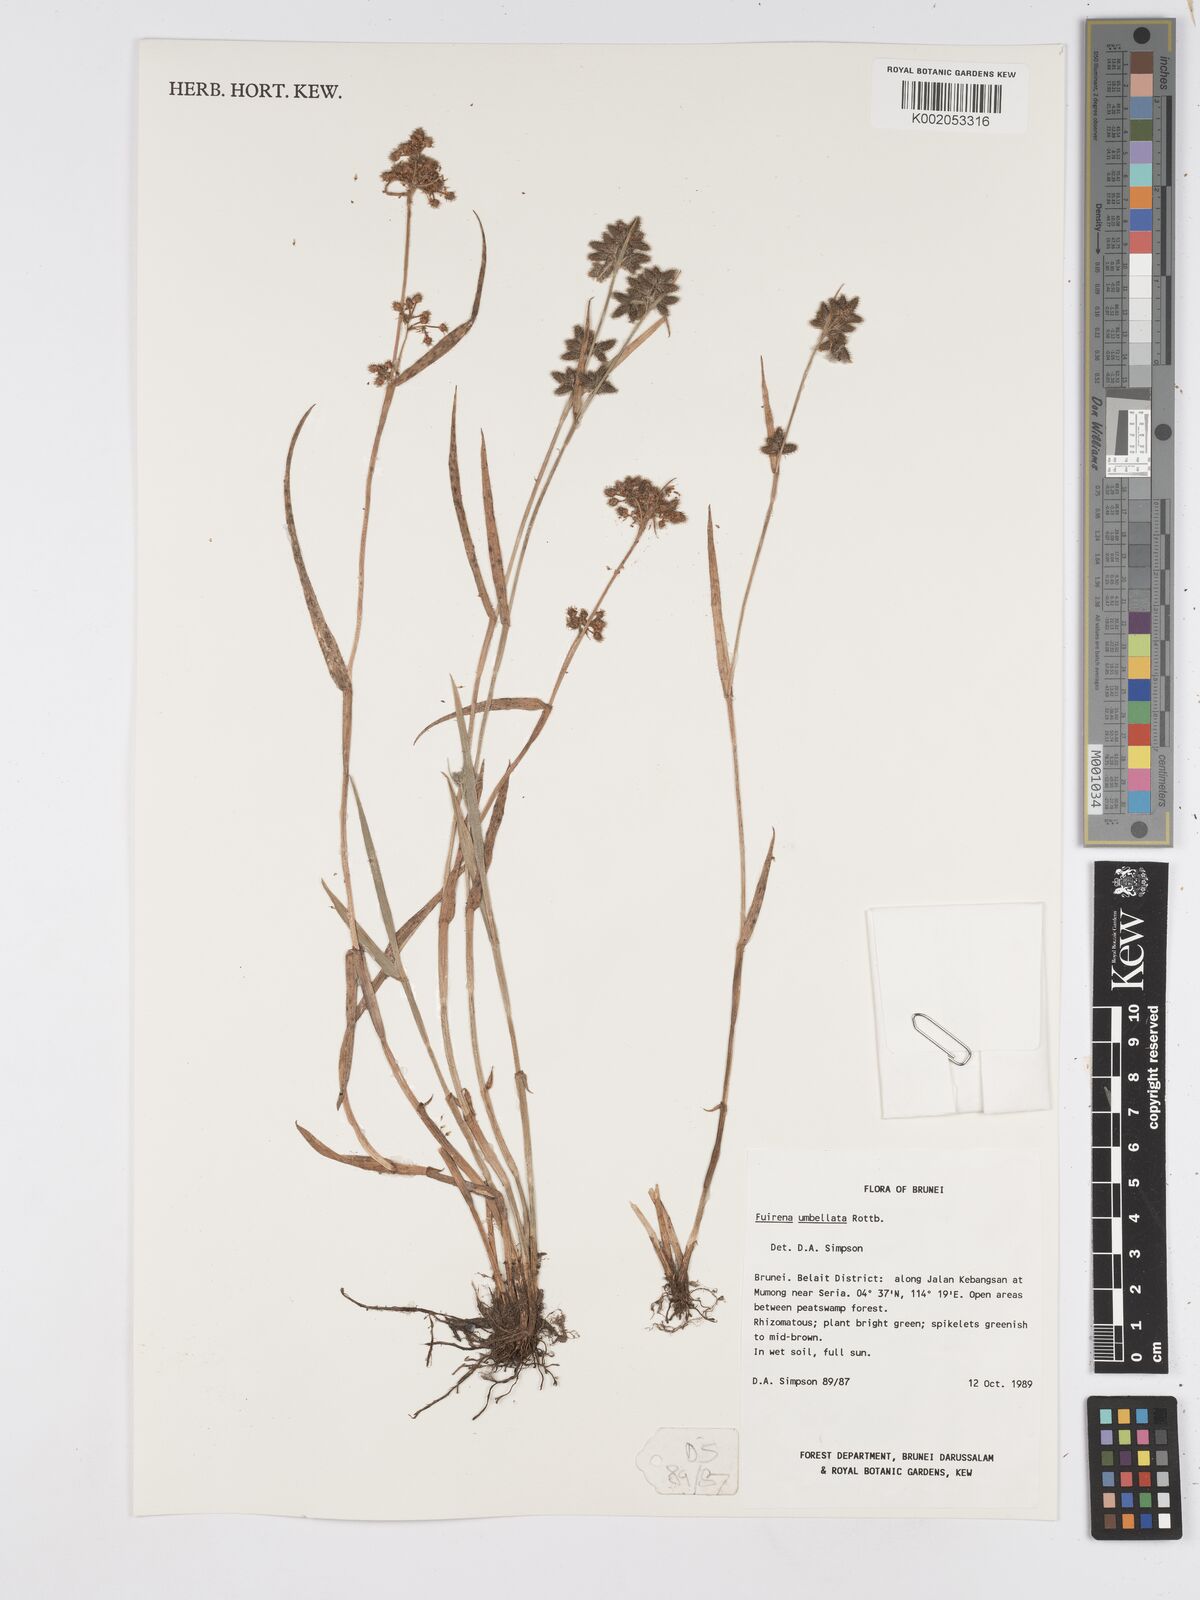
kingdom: Plantae
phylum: Tracheophyta
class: Liliopsida
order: Poales
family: Cyperaceae
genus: Fuirena
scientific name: Fuirena umbellata
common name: Yefen
